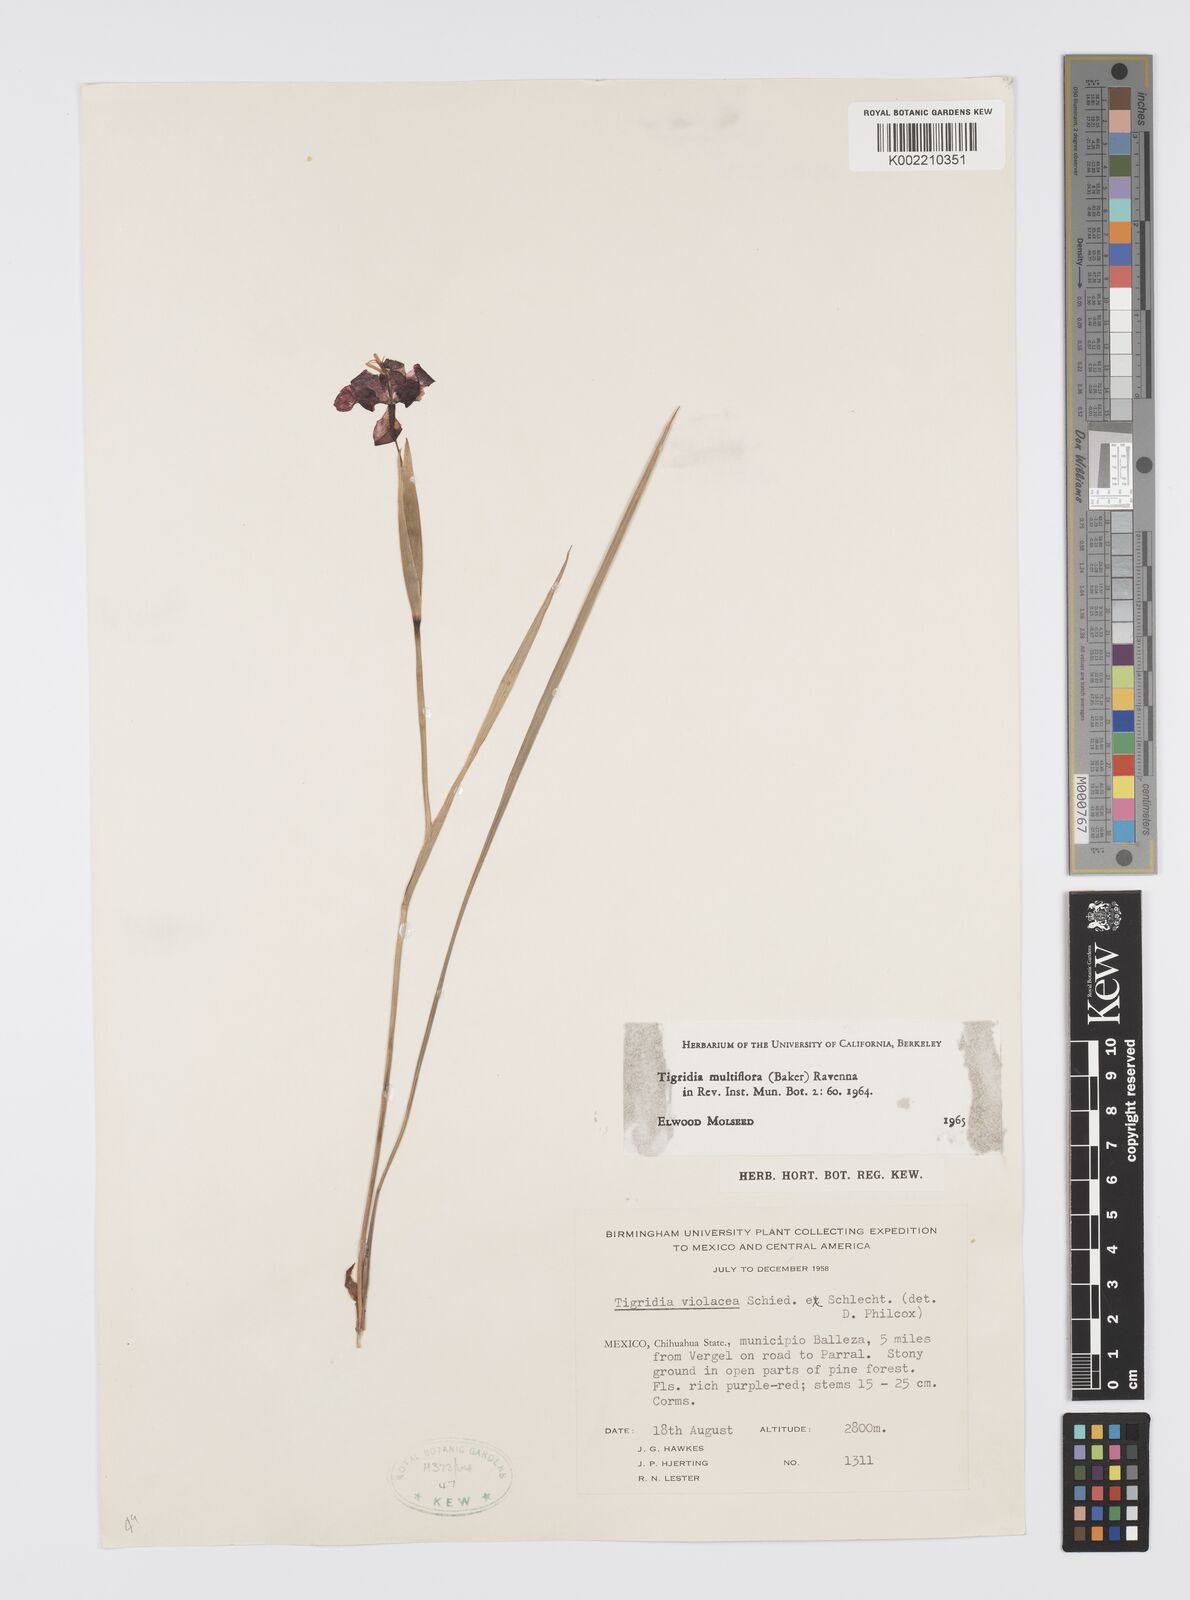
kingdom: Plantae
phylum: Tracheophyta
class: Liliopsida
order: Asparagales
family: Iridaceae
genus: Tigridia
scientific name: Tigridia multiflora
